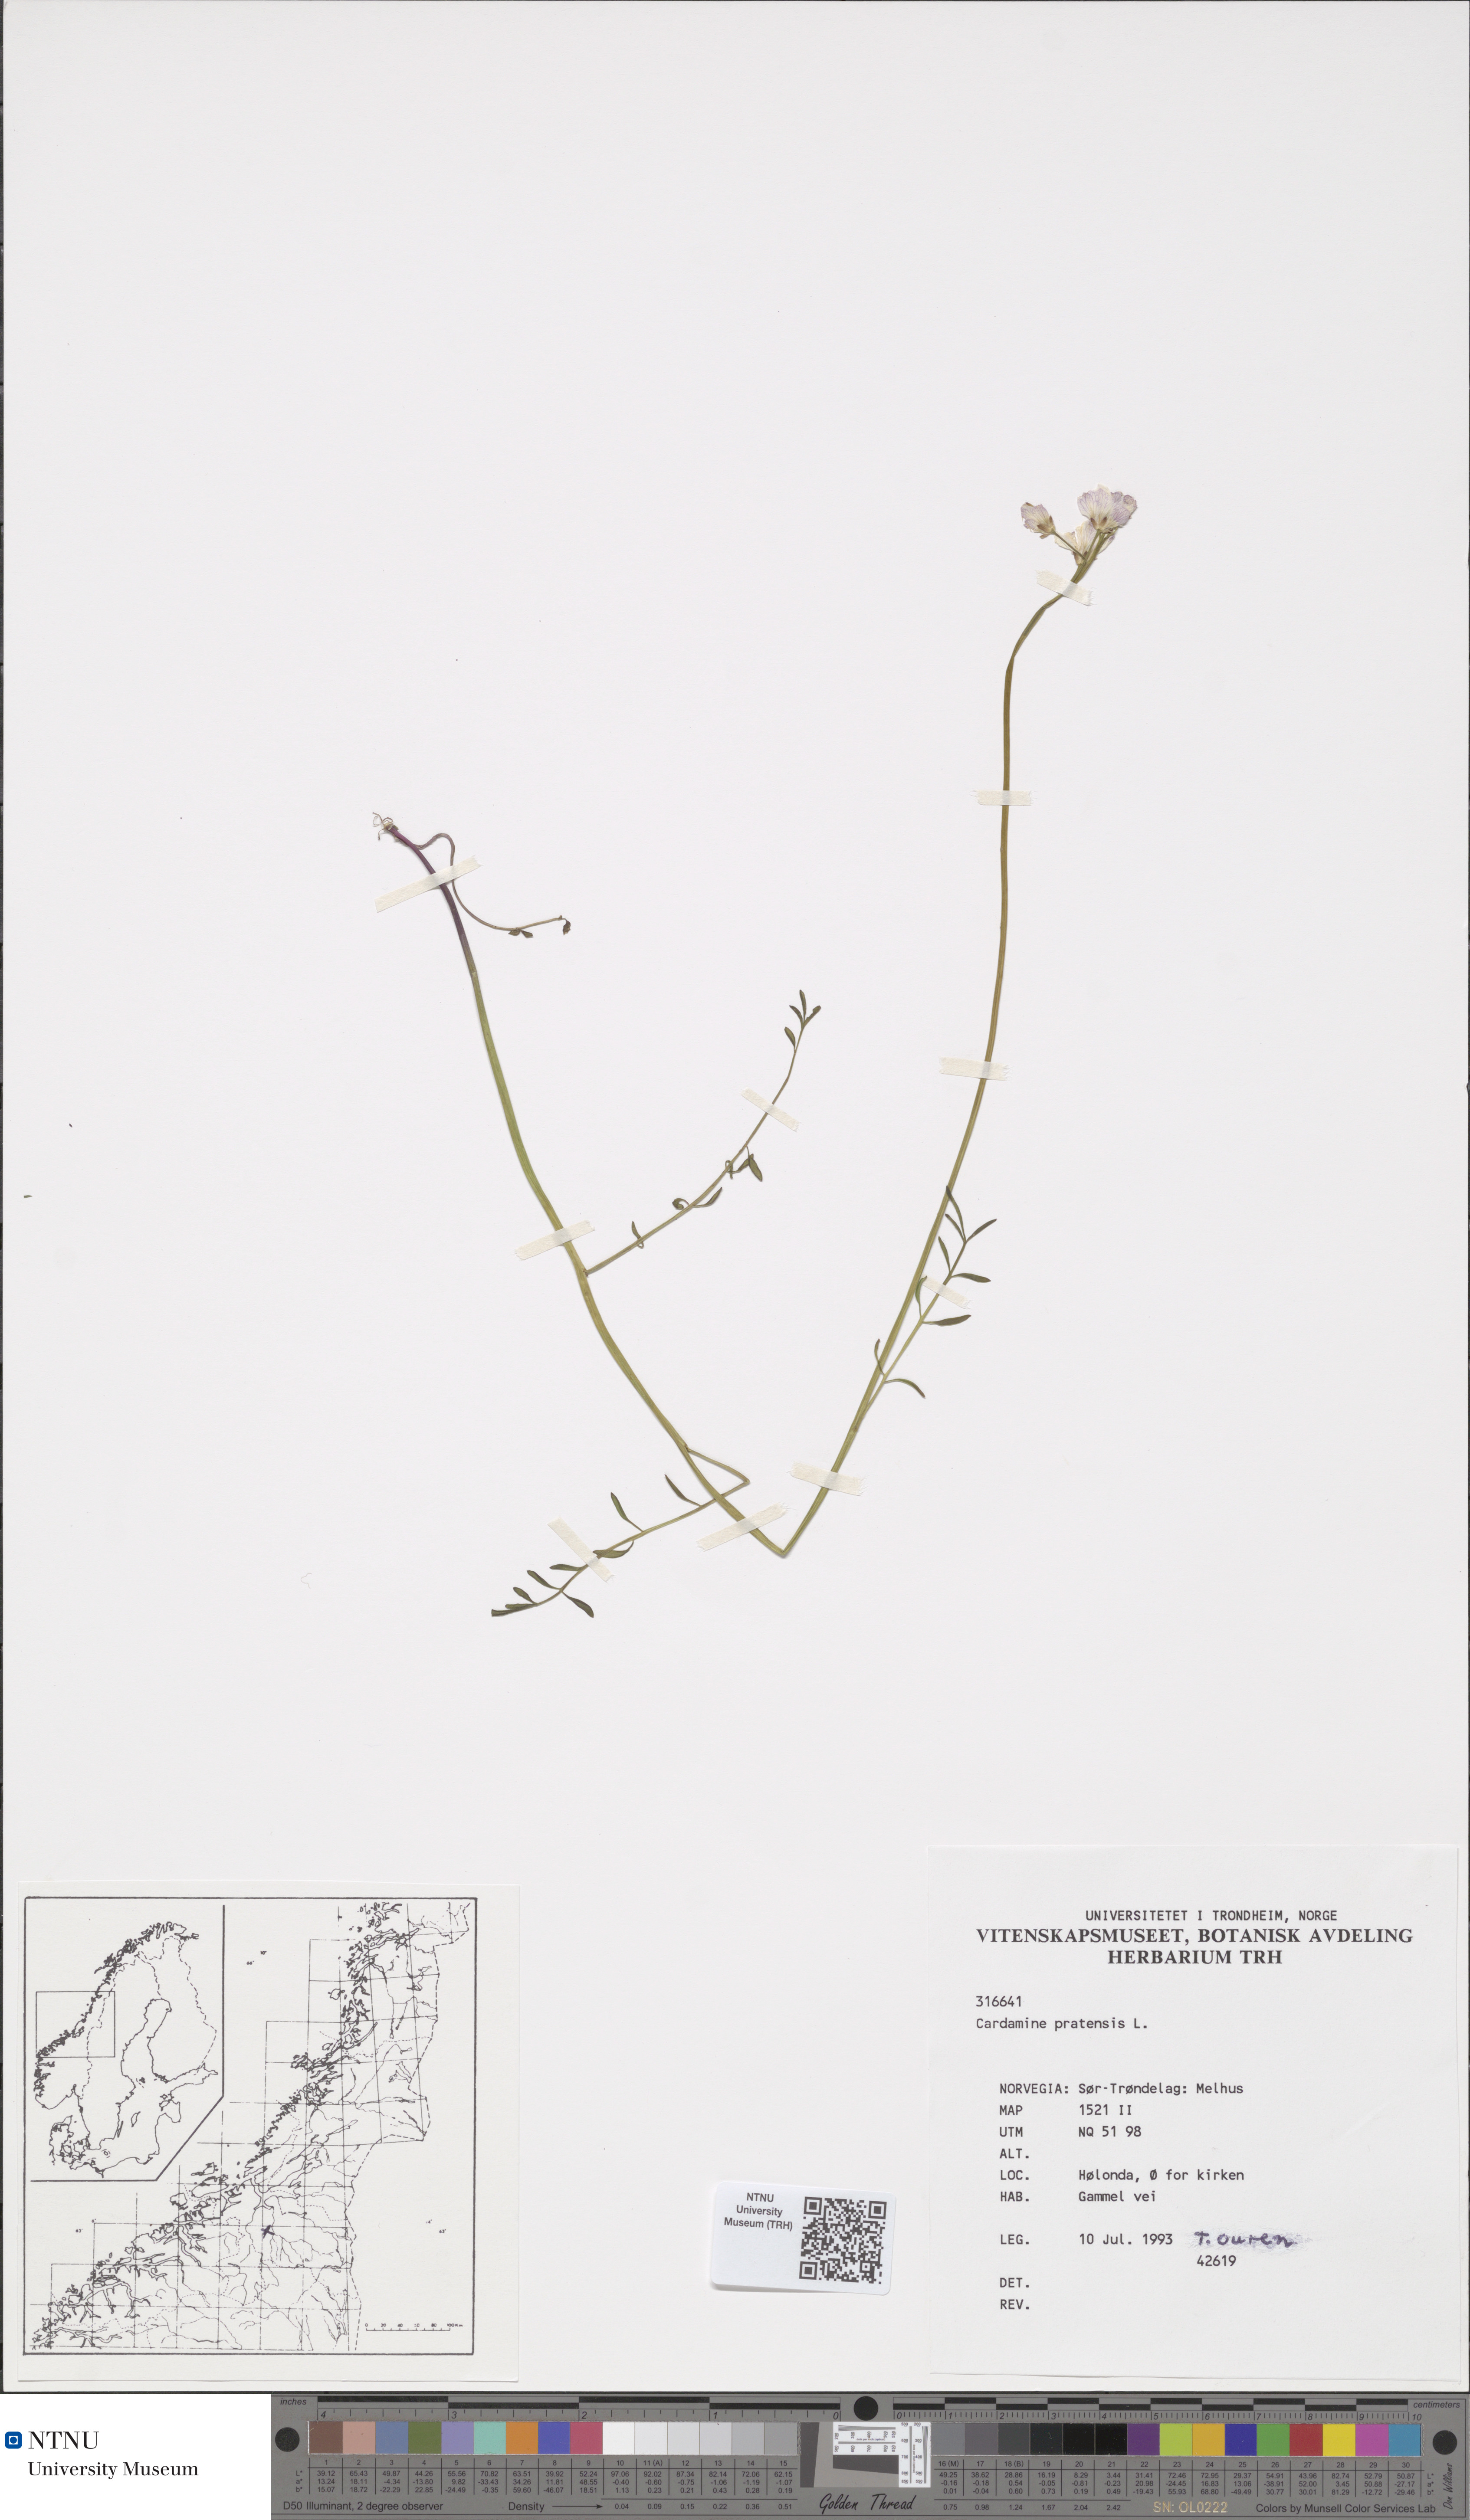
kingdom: Plantae
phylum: Tracheophyta
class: Magnoliopsida
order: Brassicales
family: Brassicaceae
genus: Cardamine
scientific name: Cardamine dentata
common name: Toothed bittercress
